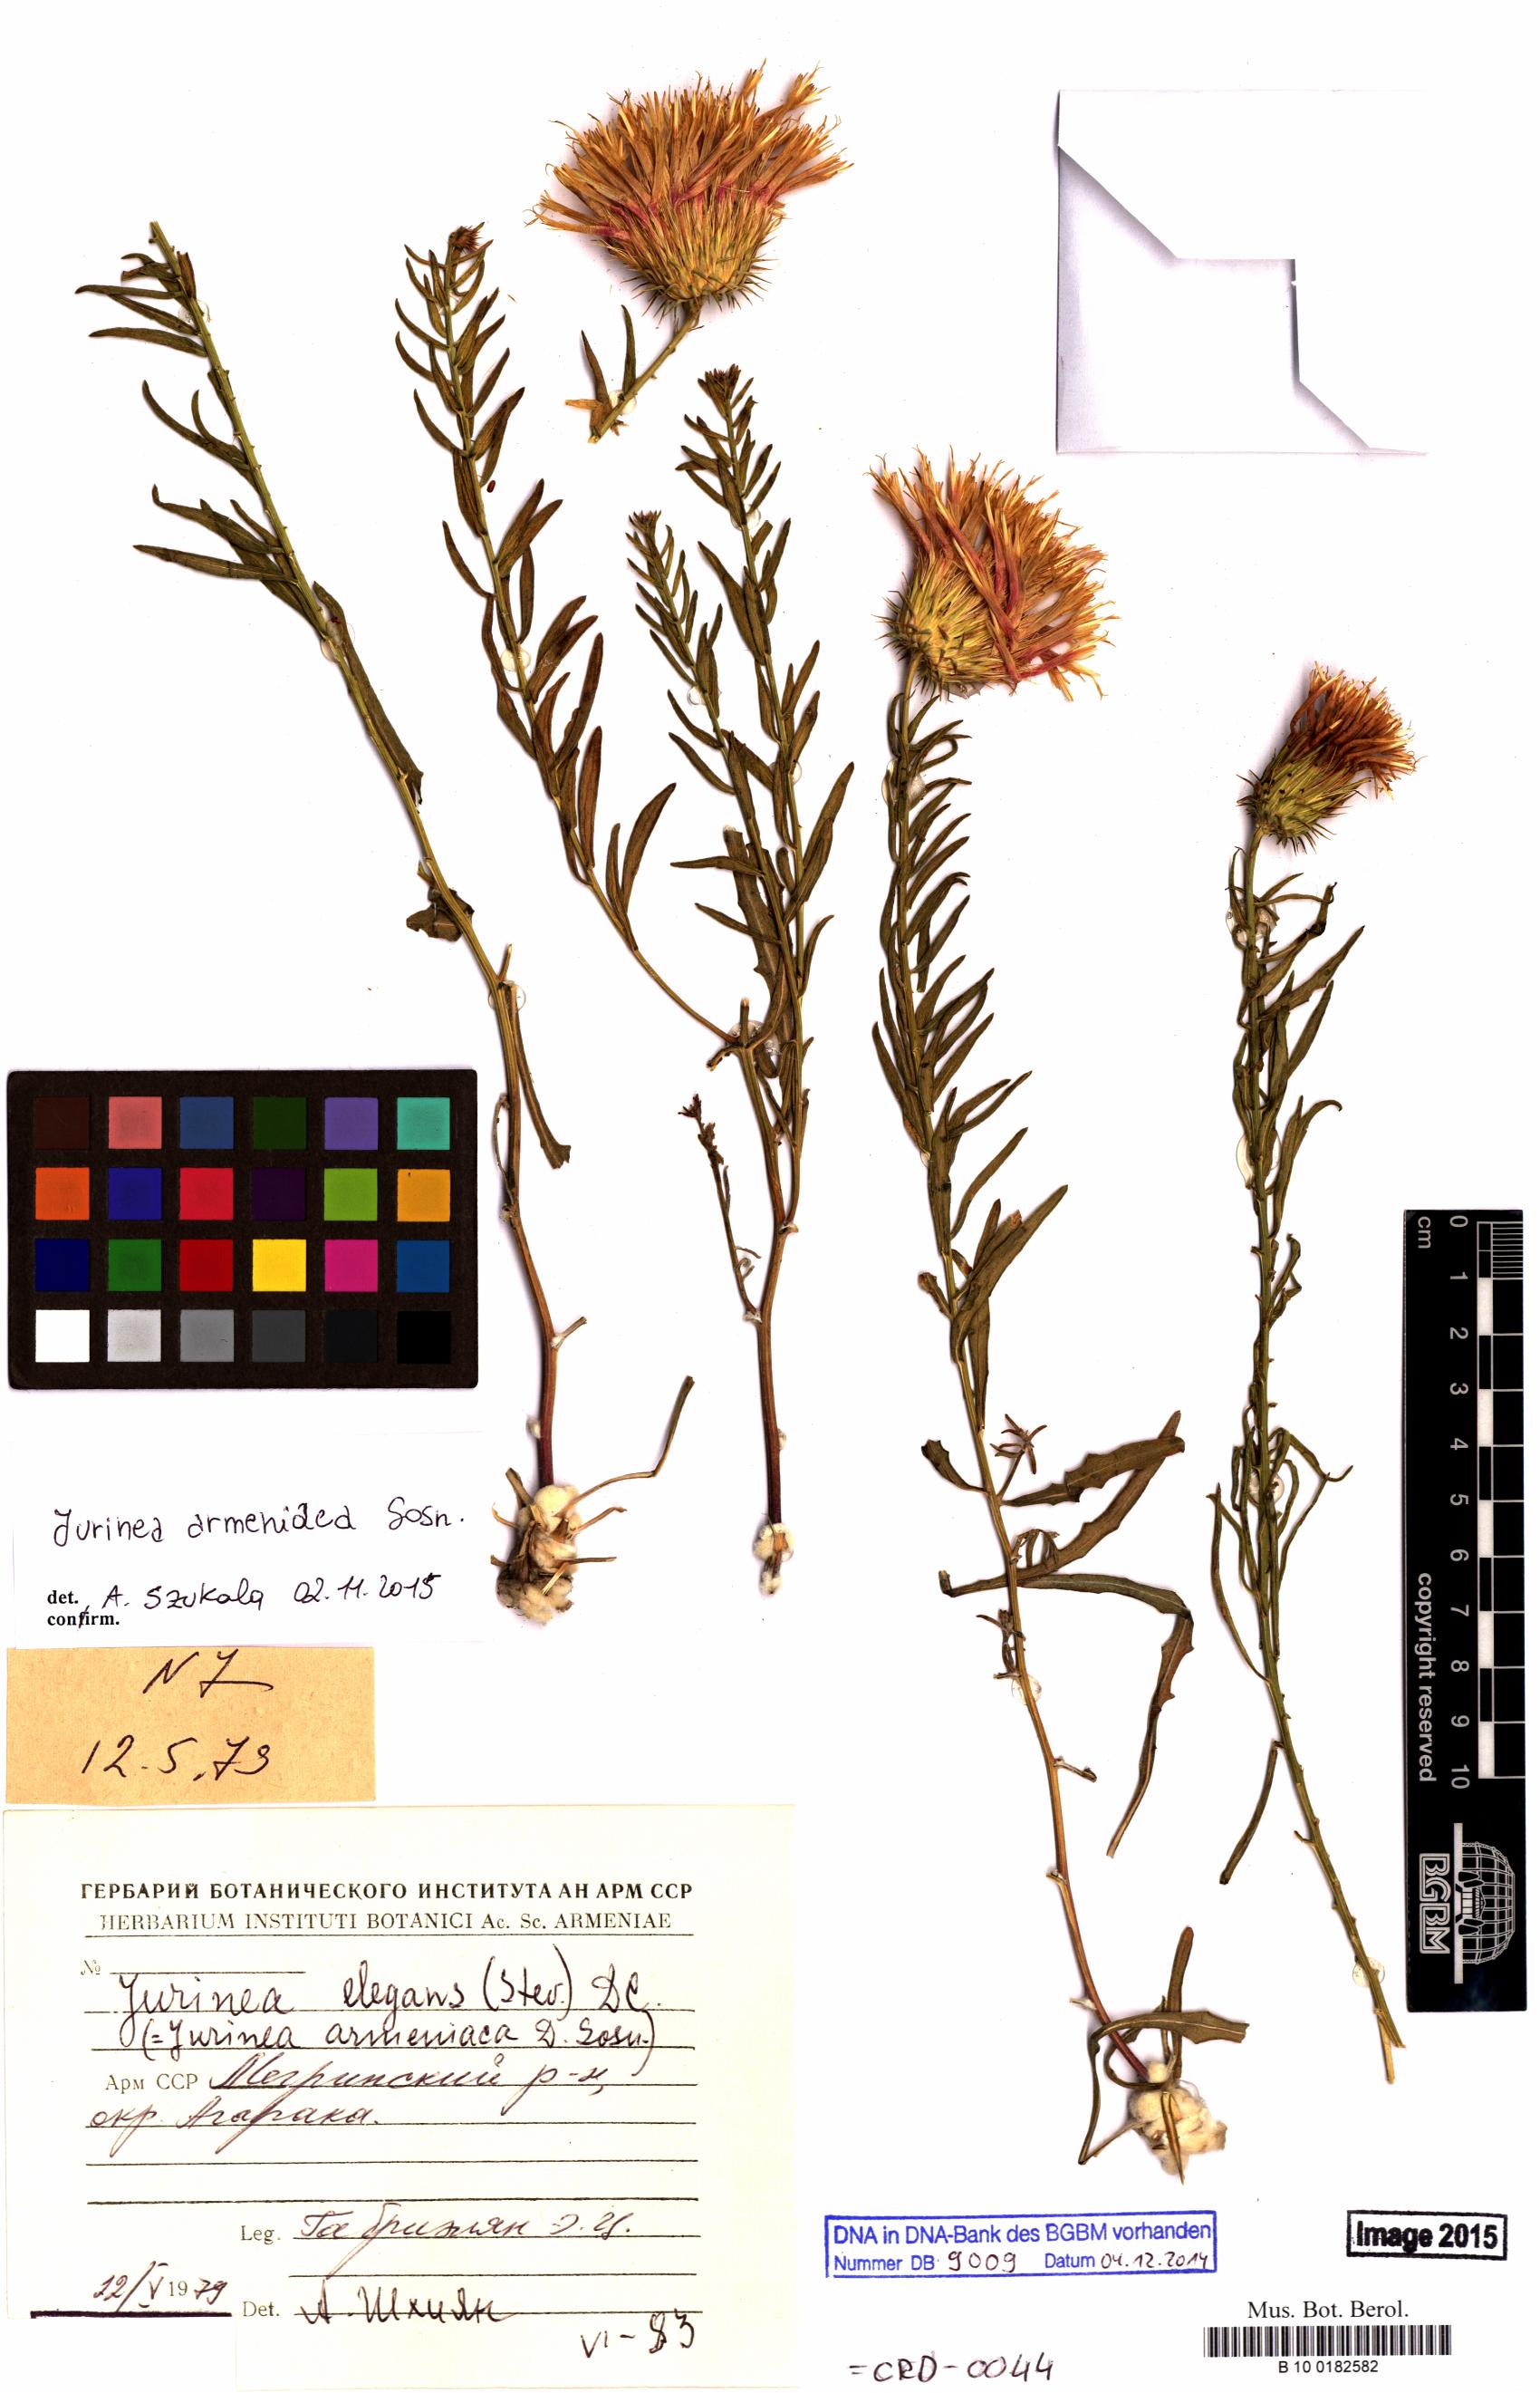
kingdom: Plantae
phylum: Tracheophyta
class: Magnoliopsida
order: Asterales
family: Asteraceae
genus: Jurinea
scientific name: Jurinea armeniaca
